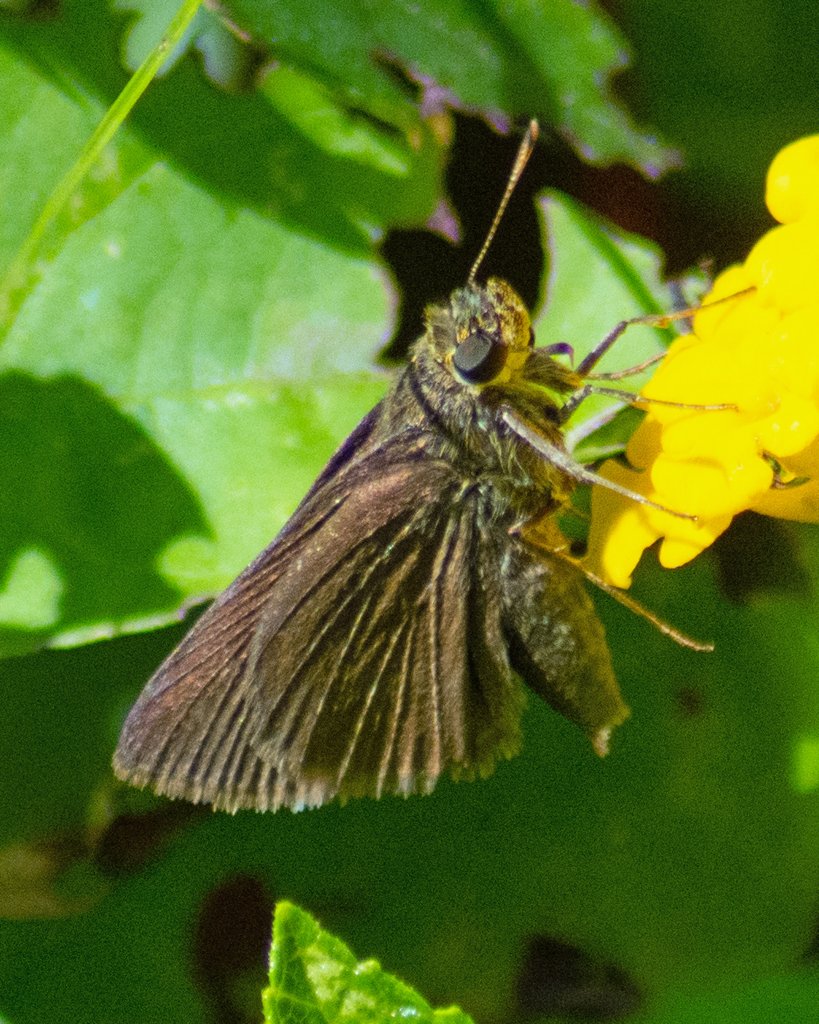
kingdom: Animalia
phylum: Arthropoda
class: Insecta
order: Lepidoptera
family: Hesperiidae
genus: Euphyes
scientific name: Euphyes vestris
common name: Dun Skipper
